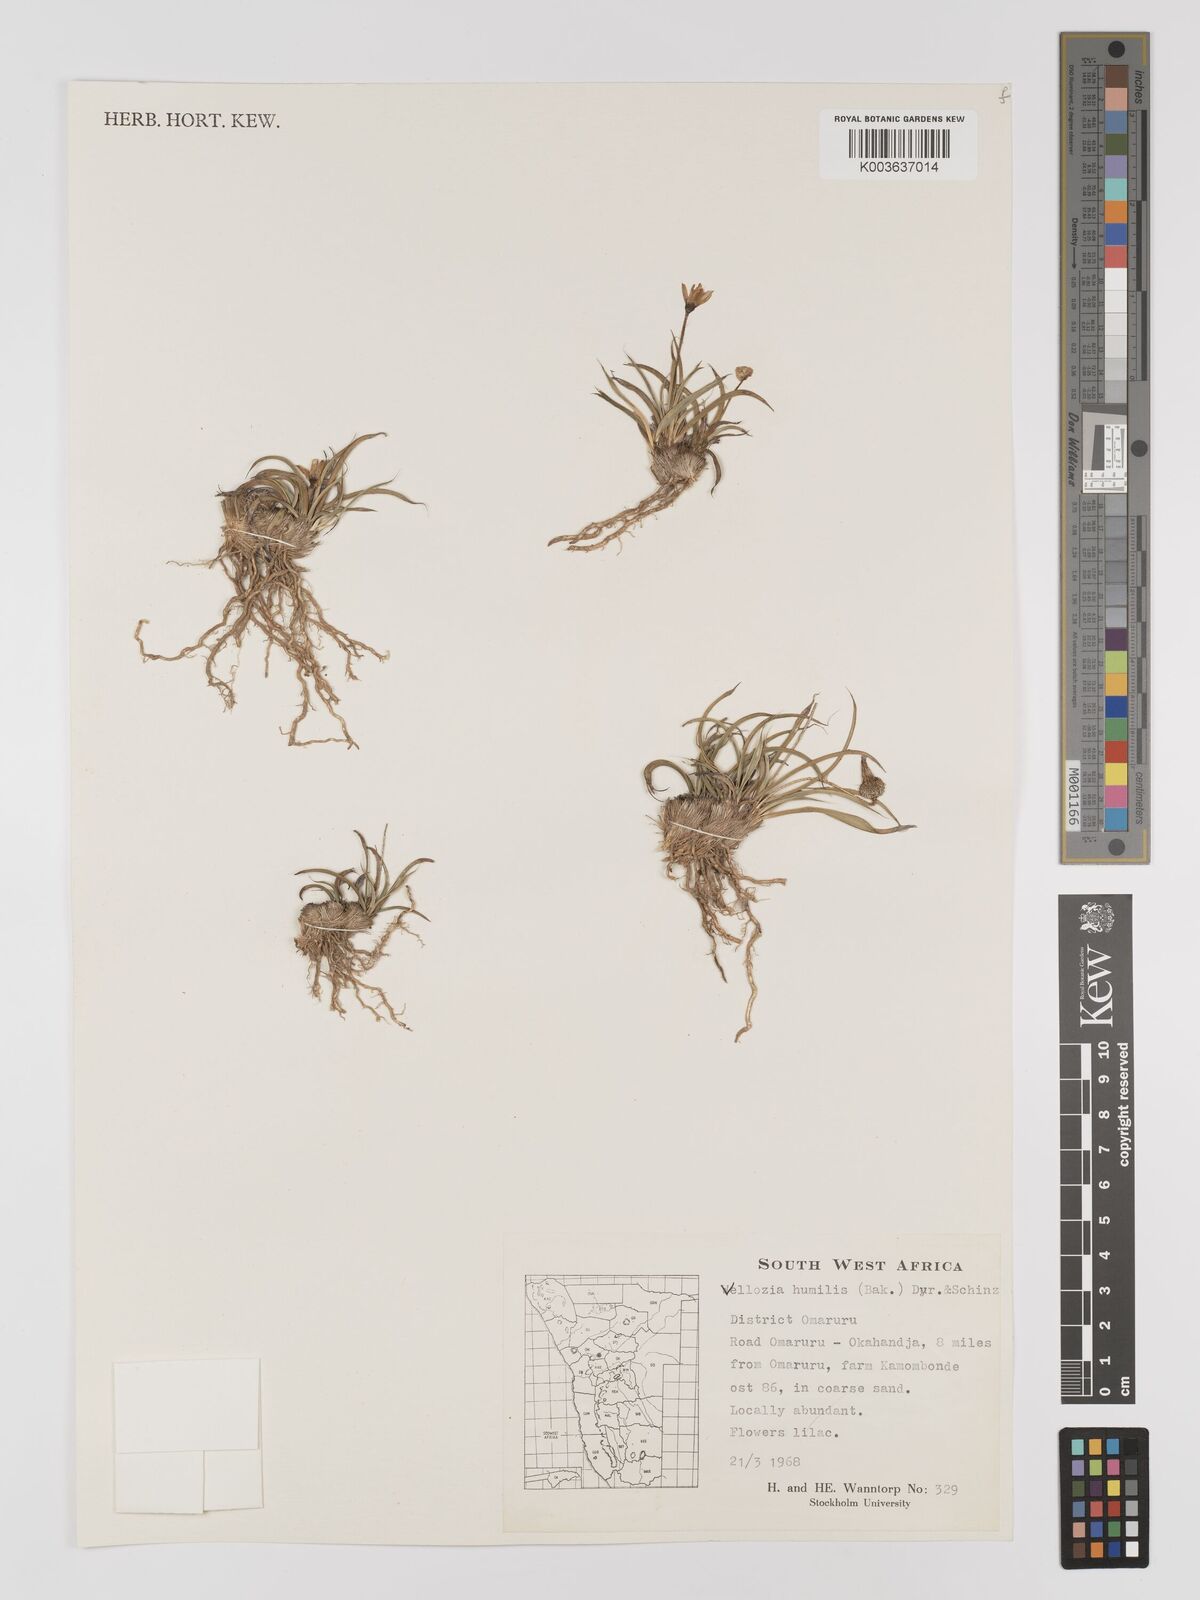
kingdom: Plantae
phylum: Tracheophyta
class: Liliopsida
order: Pandanales
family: Velloziaceae
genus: Xerophyta
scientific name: Xerophyta humilis
